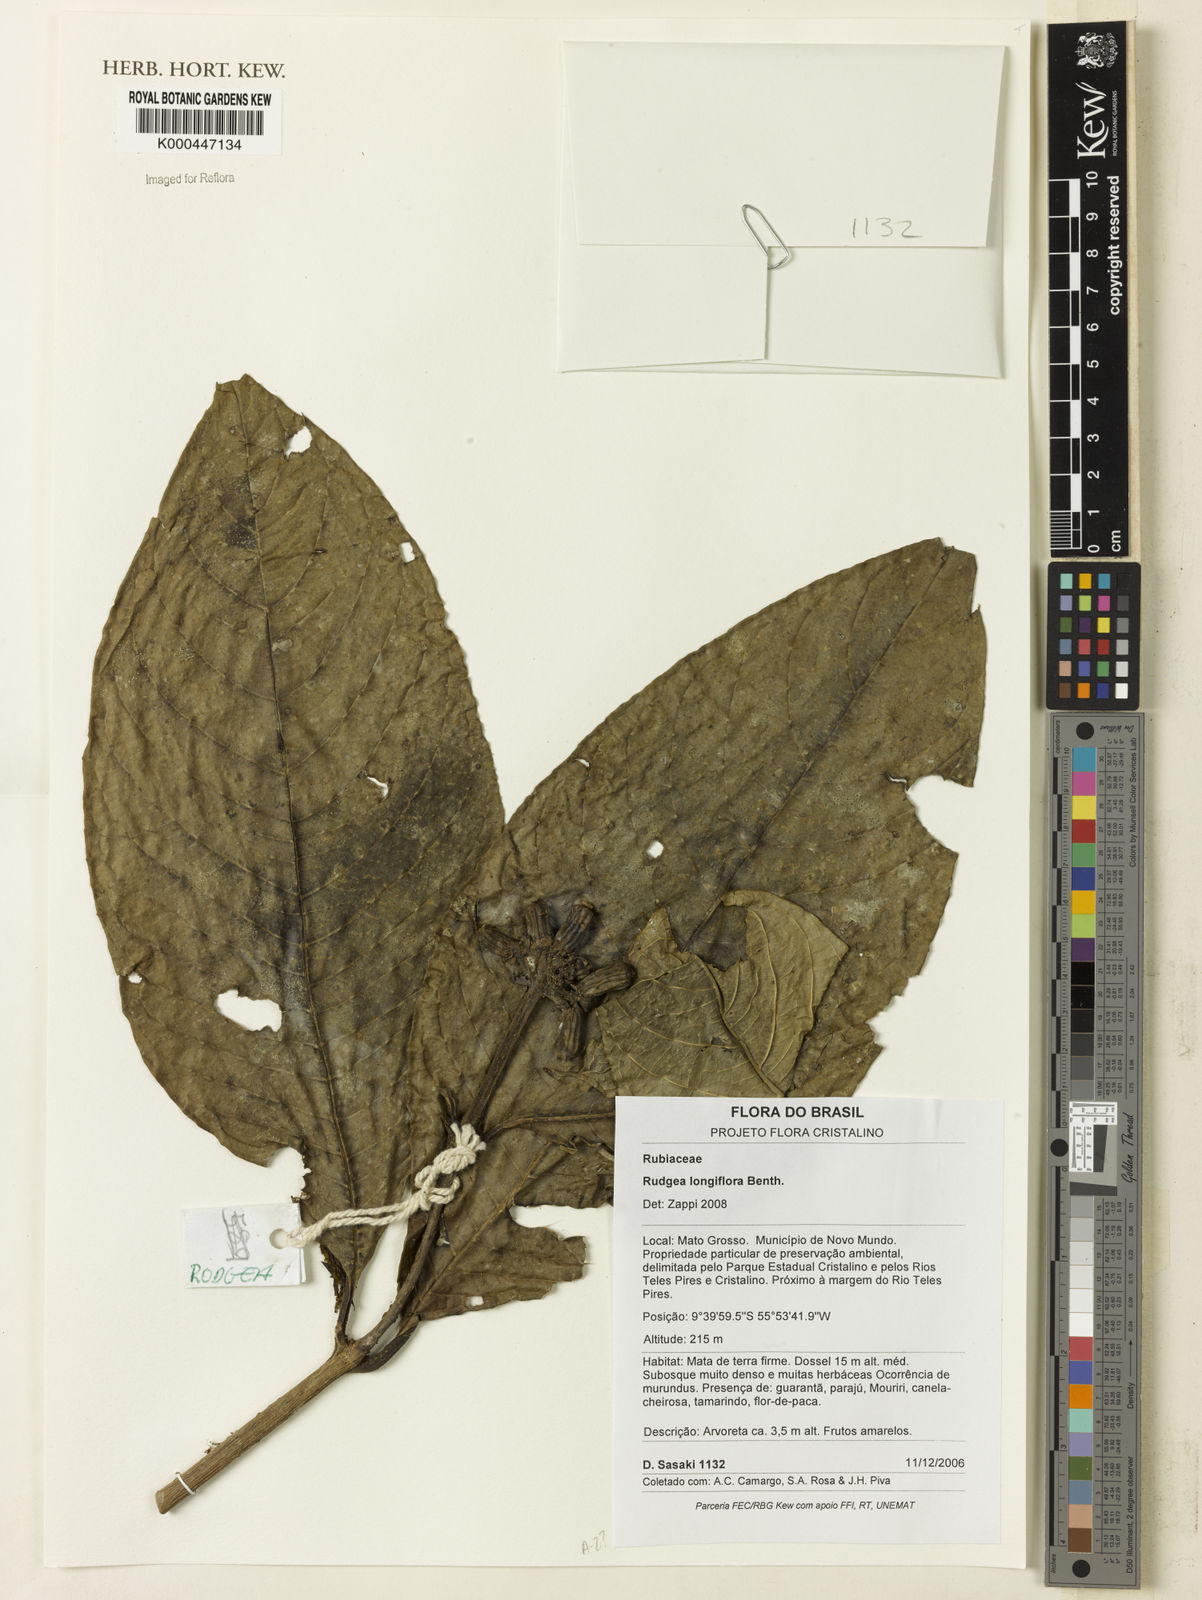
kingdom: Plantae
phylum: Tracheophyta
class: Magnoliopsida
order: Gentianales
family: Rubiaceae
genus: Rudgea
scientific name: Rudgea longiflora
